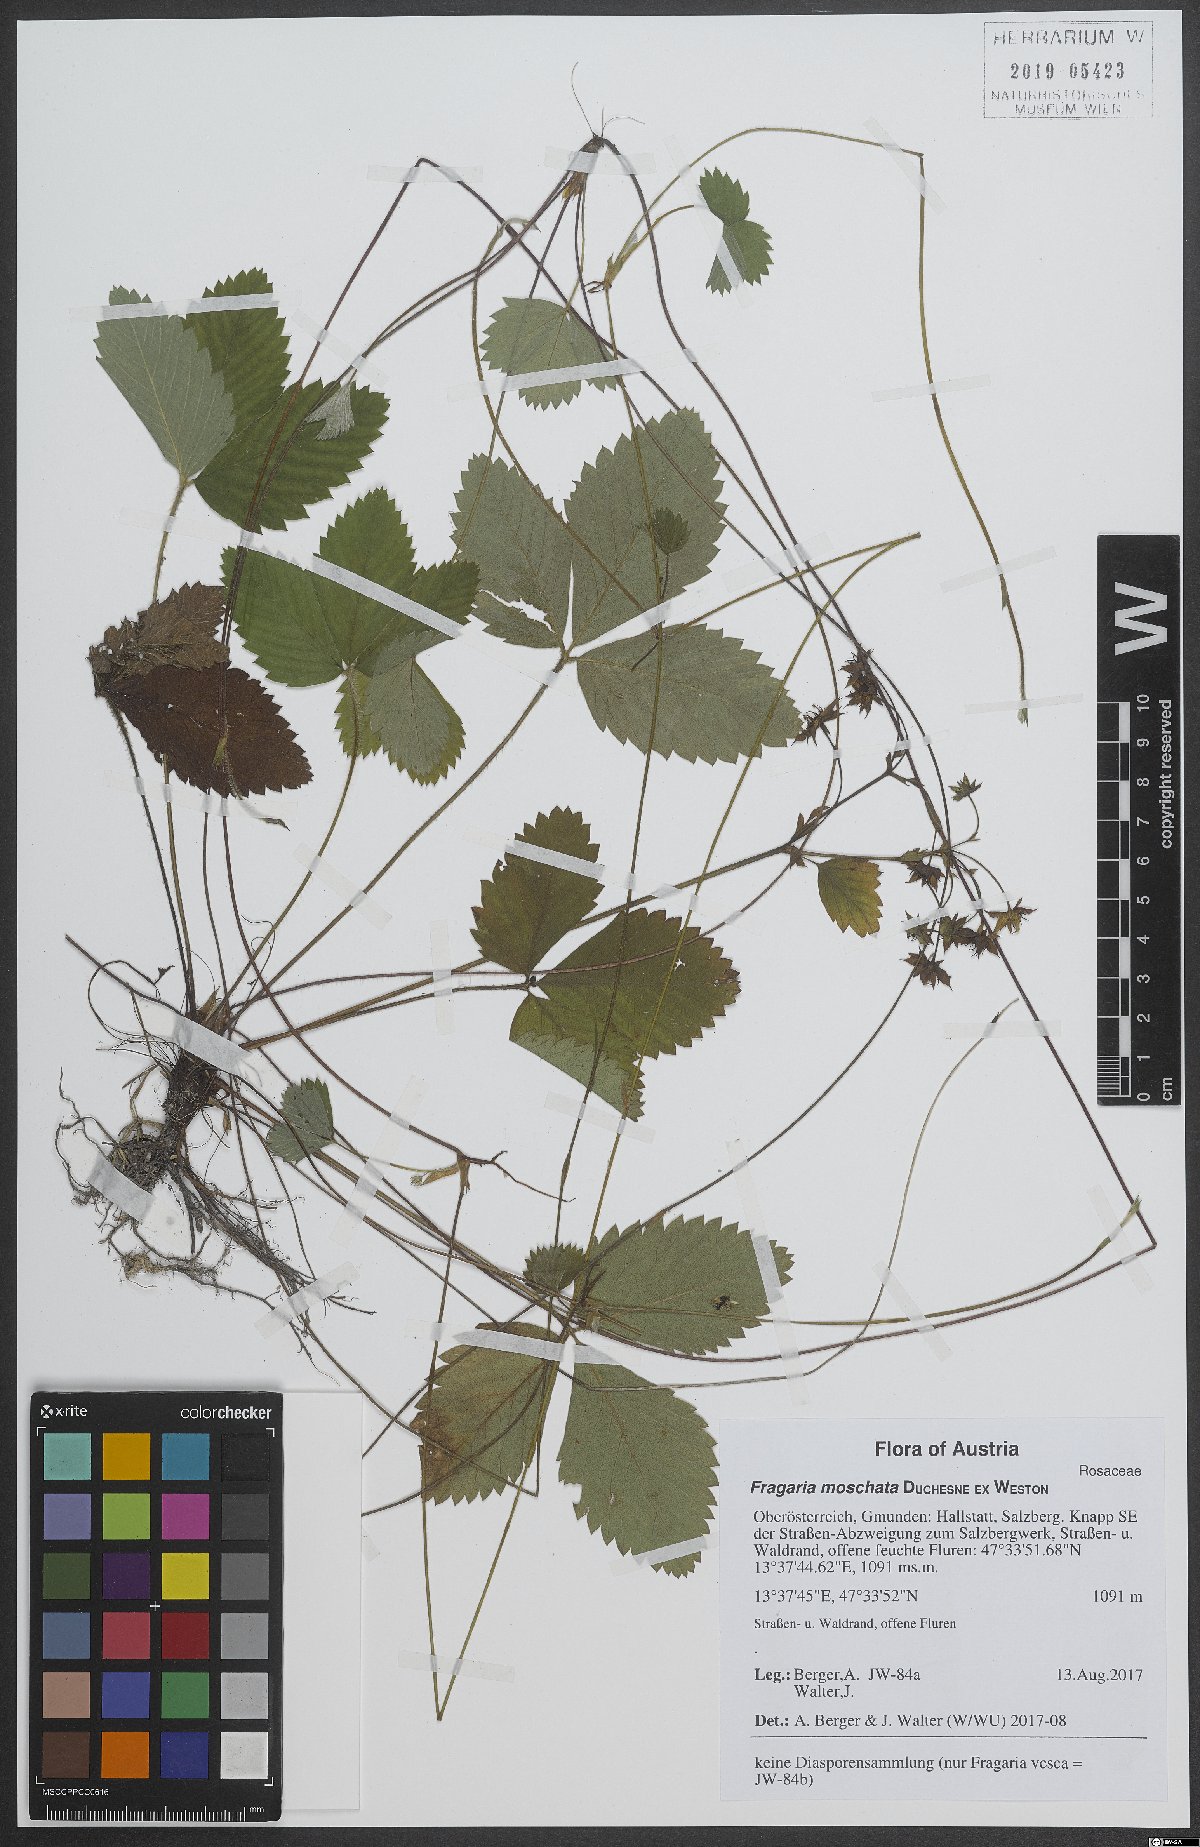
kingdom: Plantae
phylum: Tracheophyta
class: Magnoliopsida
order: Rosales
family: Rosaceae
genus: Fragaria
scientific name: Fragaria moschata
